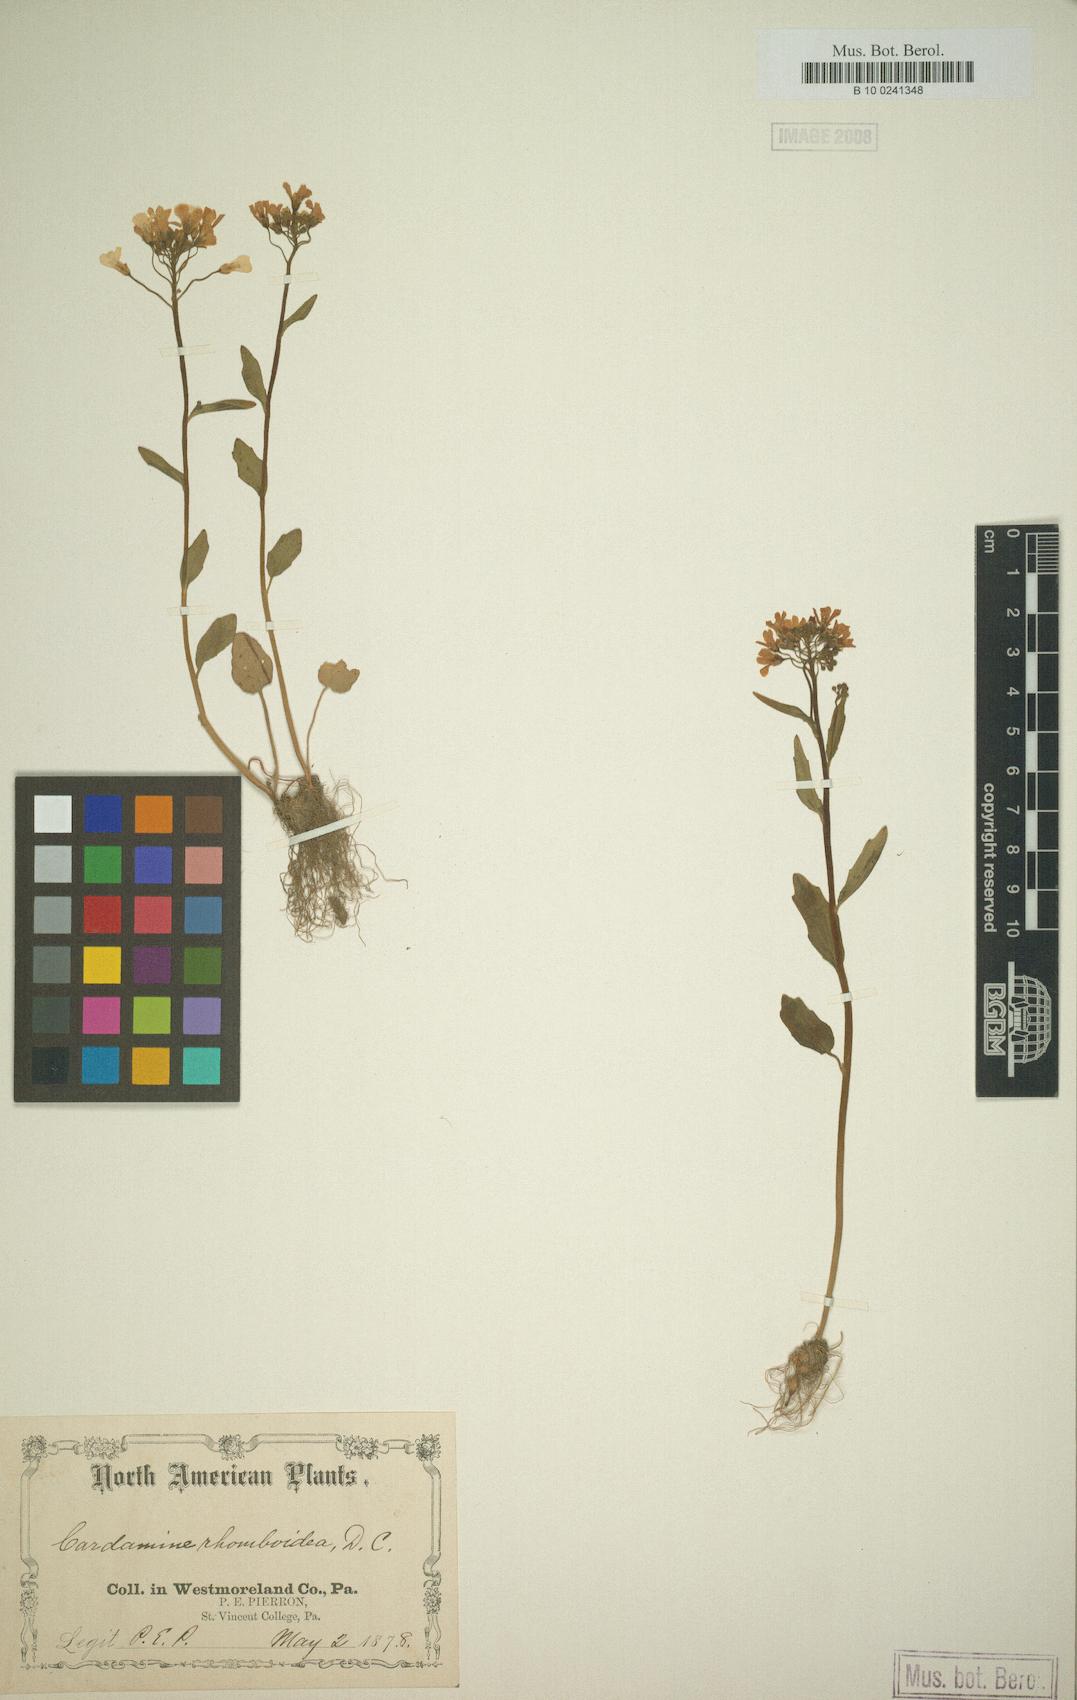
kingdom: Plantae
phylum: Tracheophyta
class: Magnoliopsida
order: Brassicales
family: Brassicaceae
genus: Cardamine
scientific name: Cardamine bulbosa
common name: Spring cress
